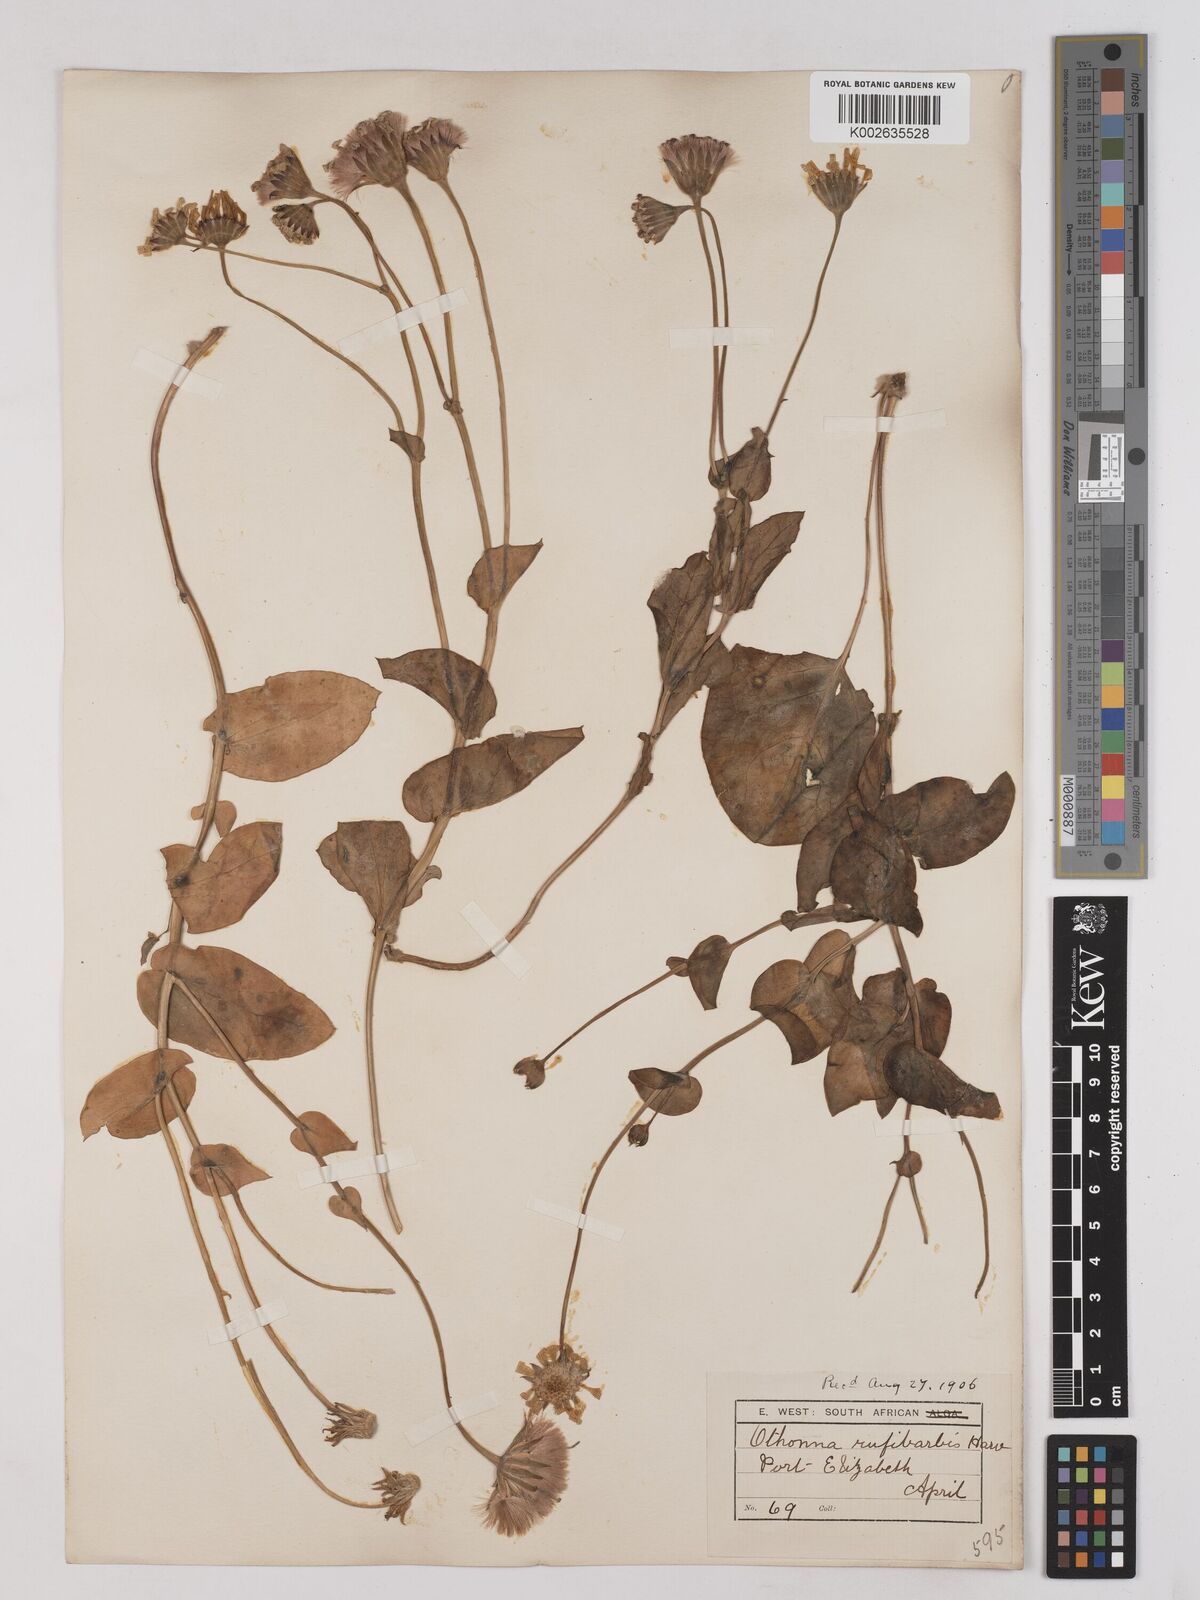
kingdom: Plantae
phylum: Tracheophyta
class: Magnoliopsida
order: Asterales
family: Asteraceae
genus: Othonna
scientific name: Othonna rufibarbis
